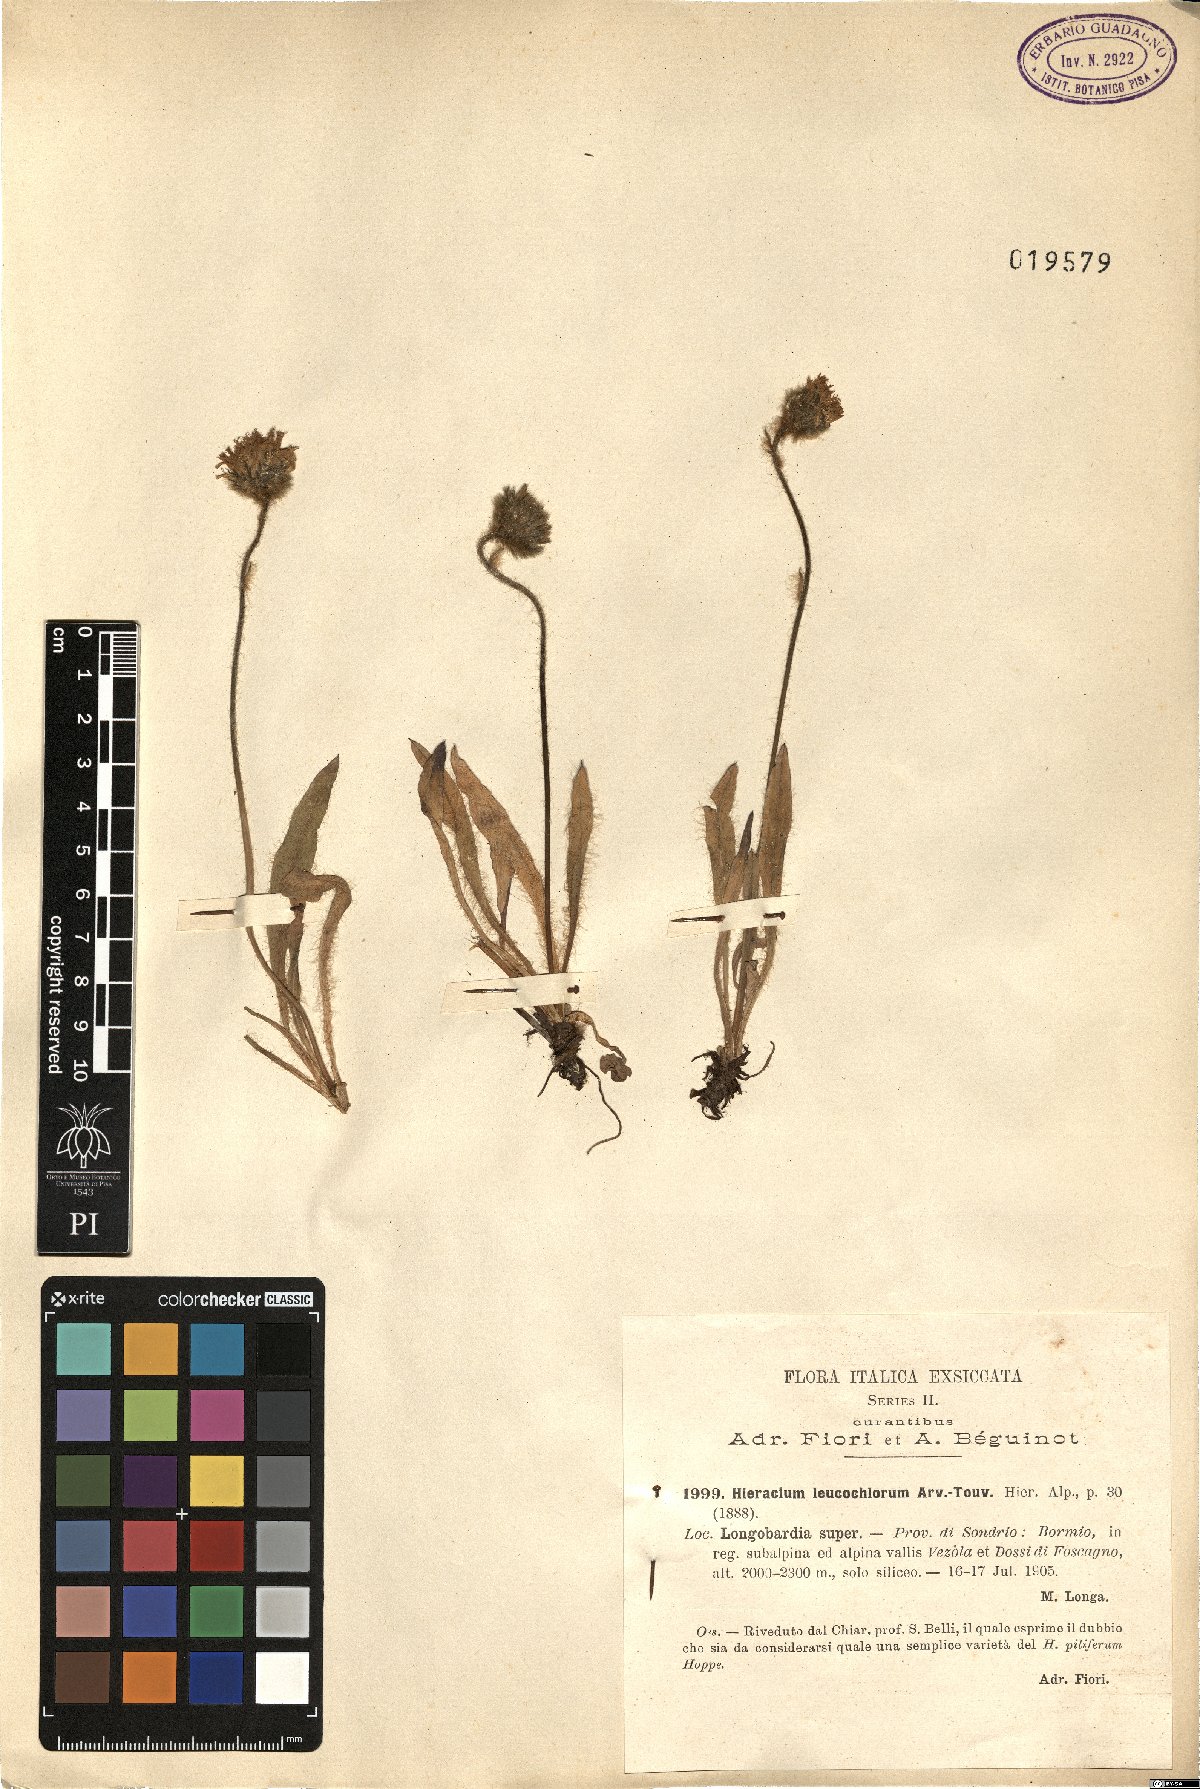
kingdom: Plantae
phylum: Tracheophyta
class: Magnoliopsida
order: Asterales
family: Asteraceae
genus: Hieracium
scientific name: Hieracium armerioides
